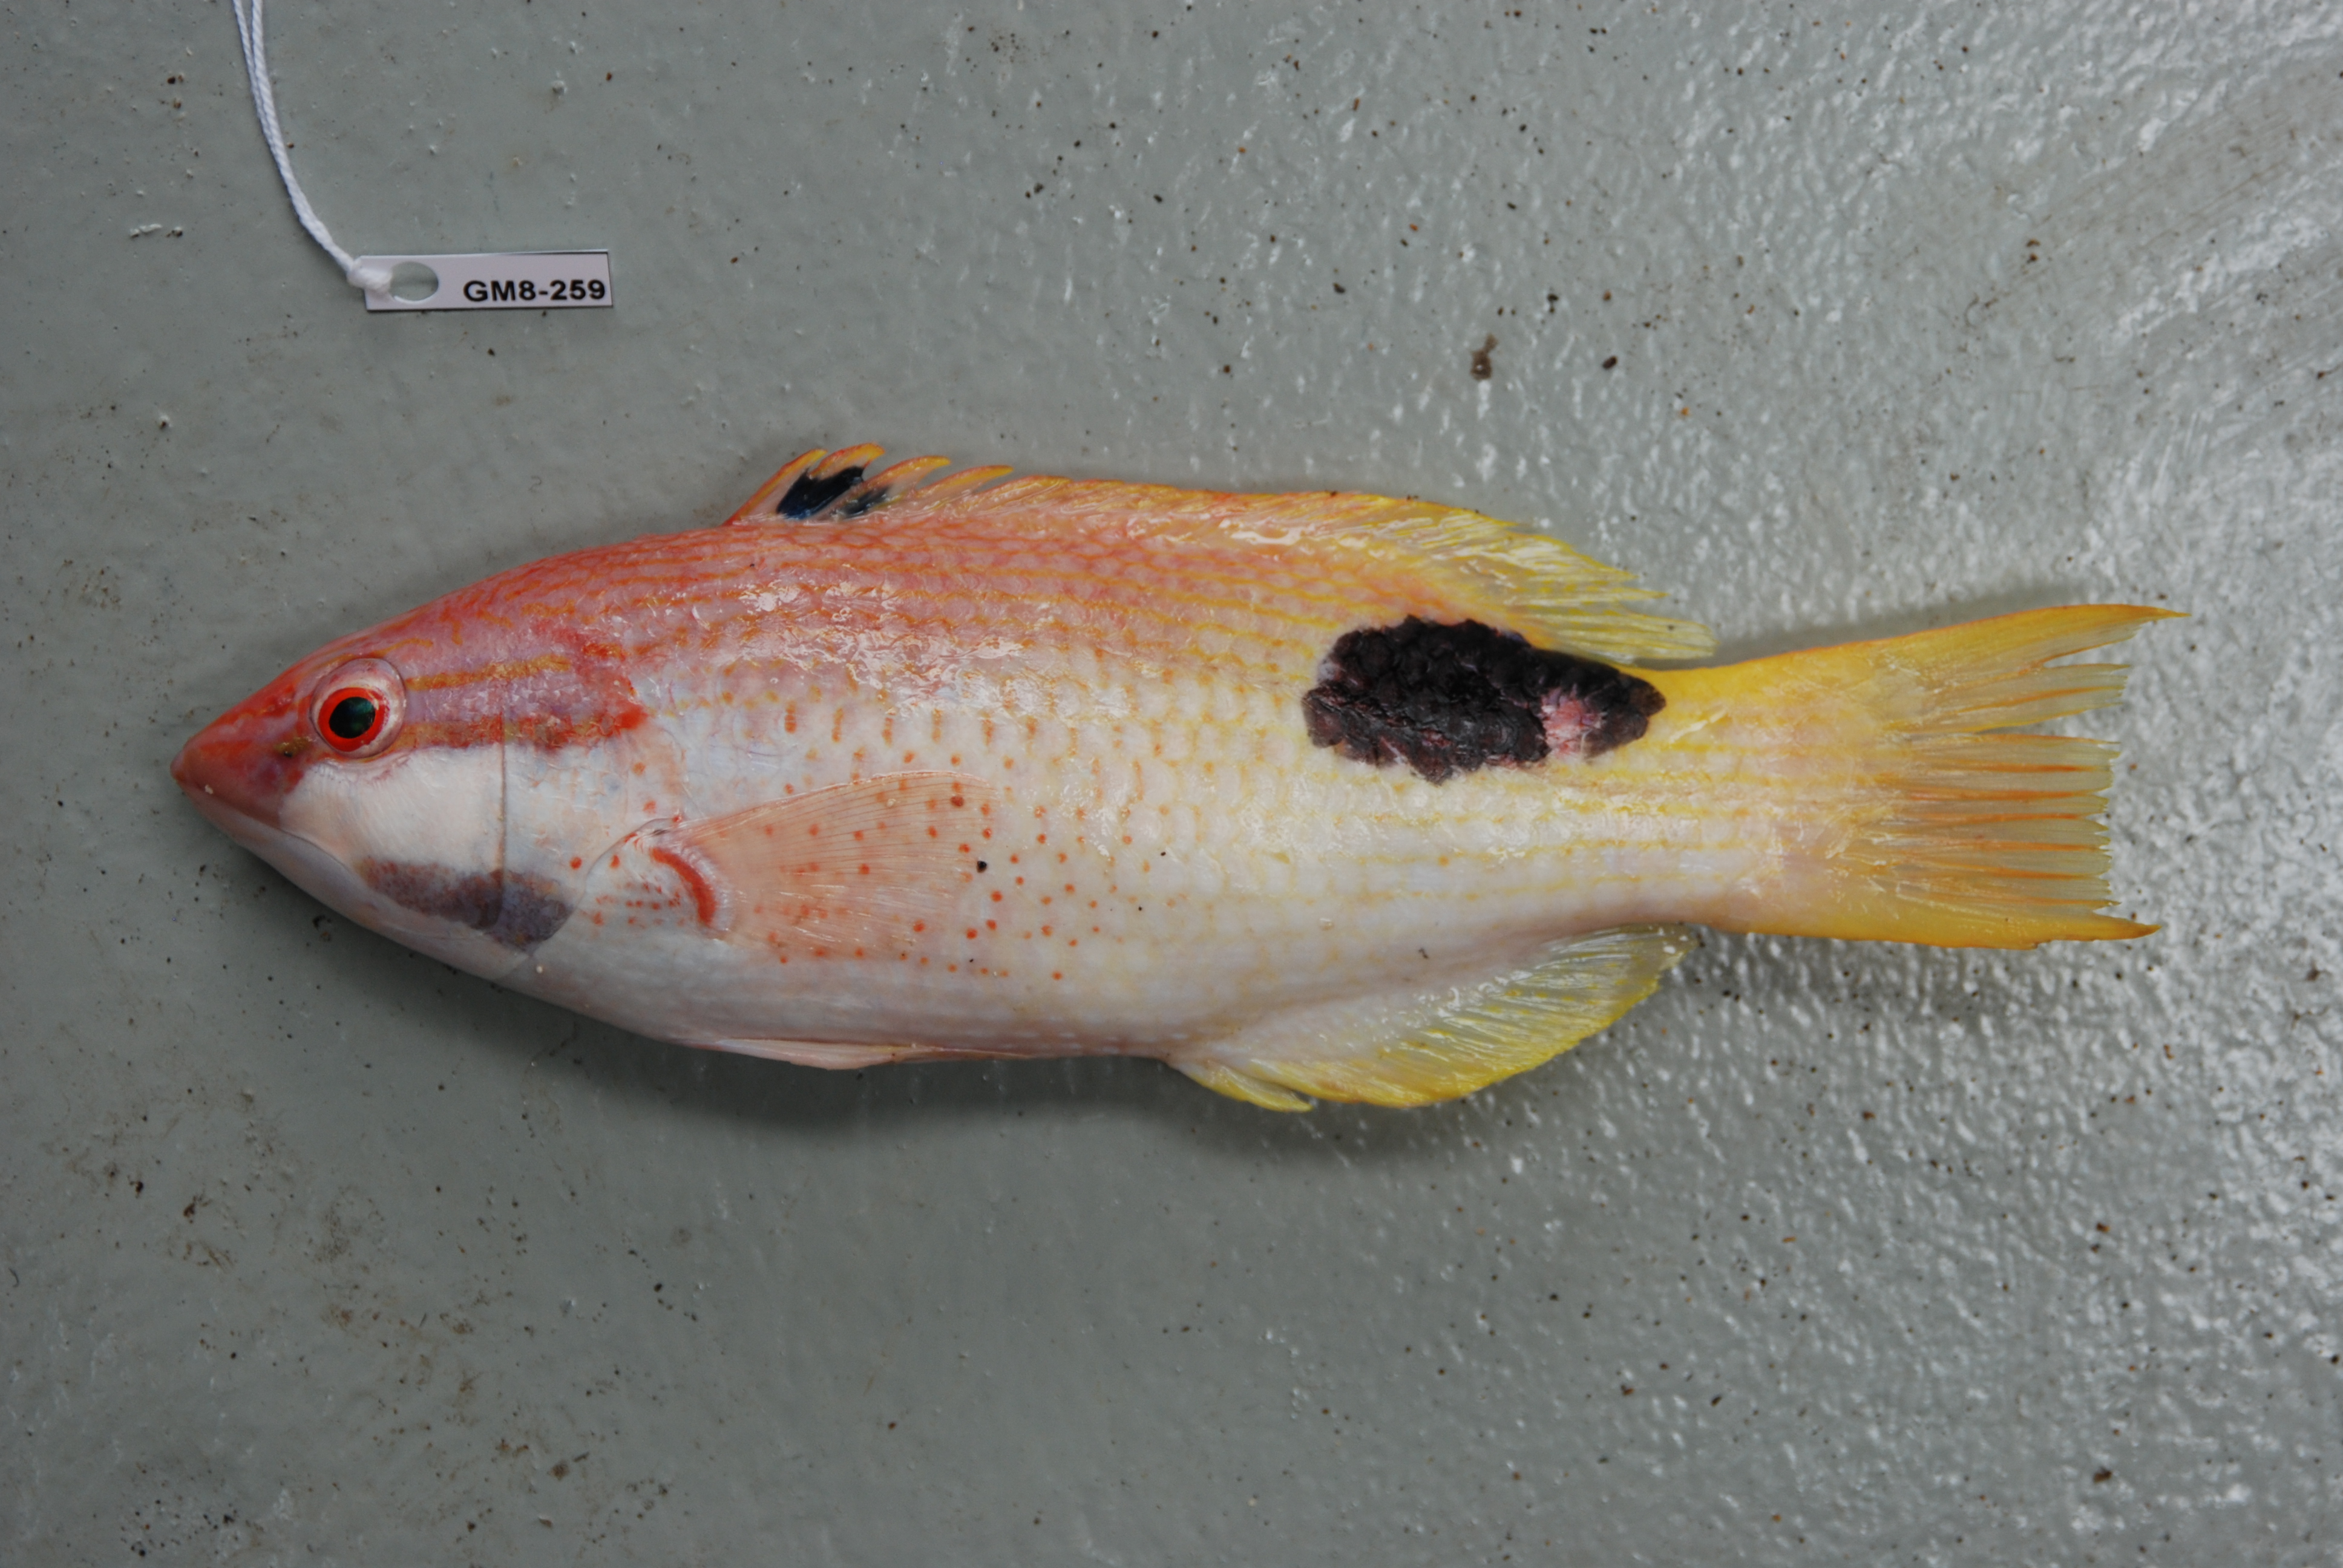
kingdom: Animalia
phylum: Chordata
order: Perciformes
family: Labridae
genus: Bodianus
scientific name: Bodianus bilunulatus
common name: Tarry hogfish
